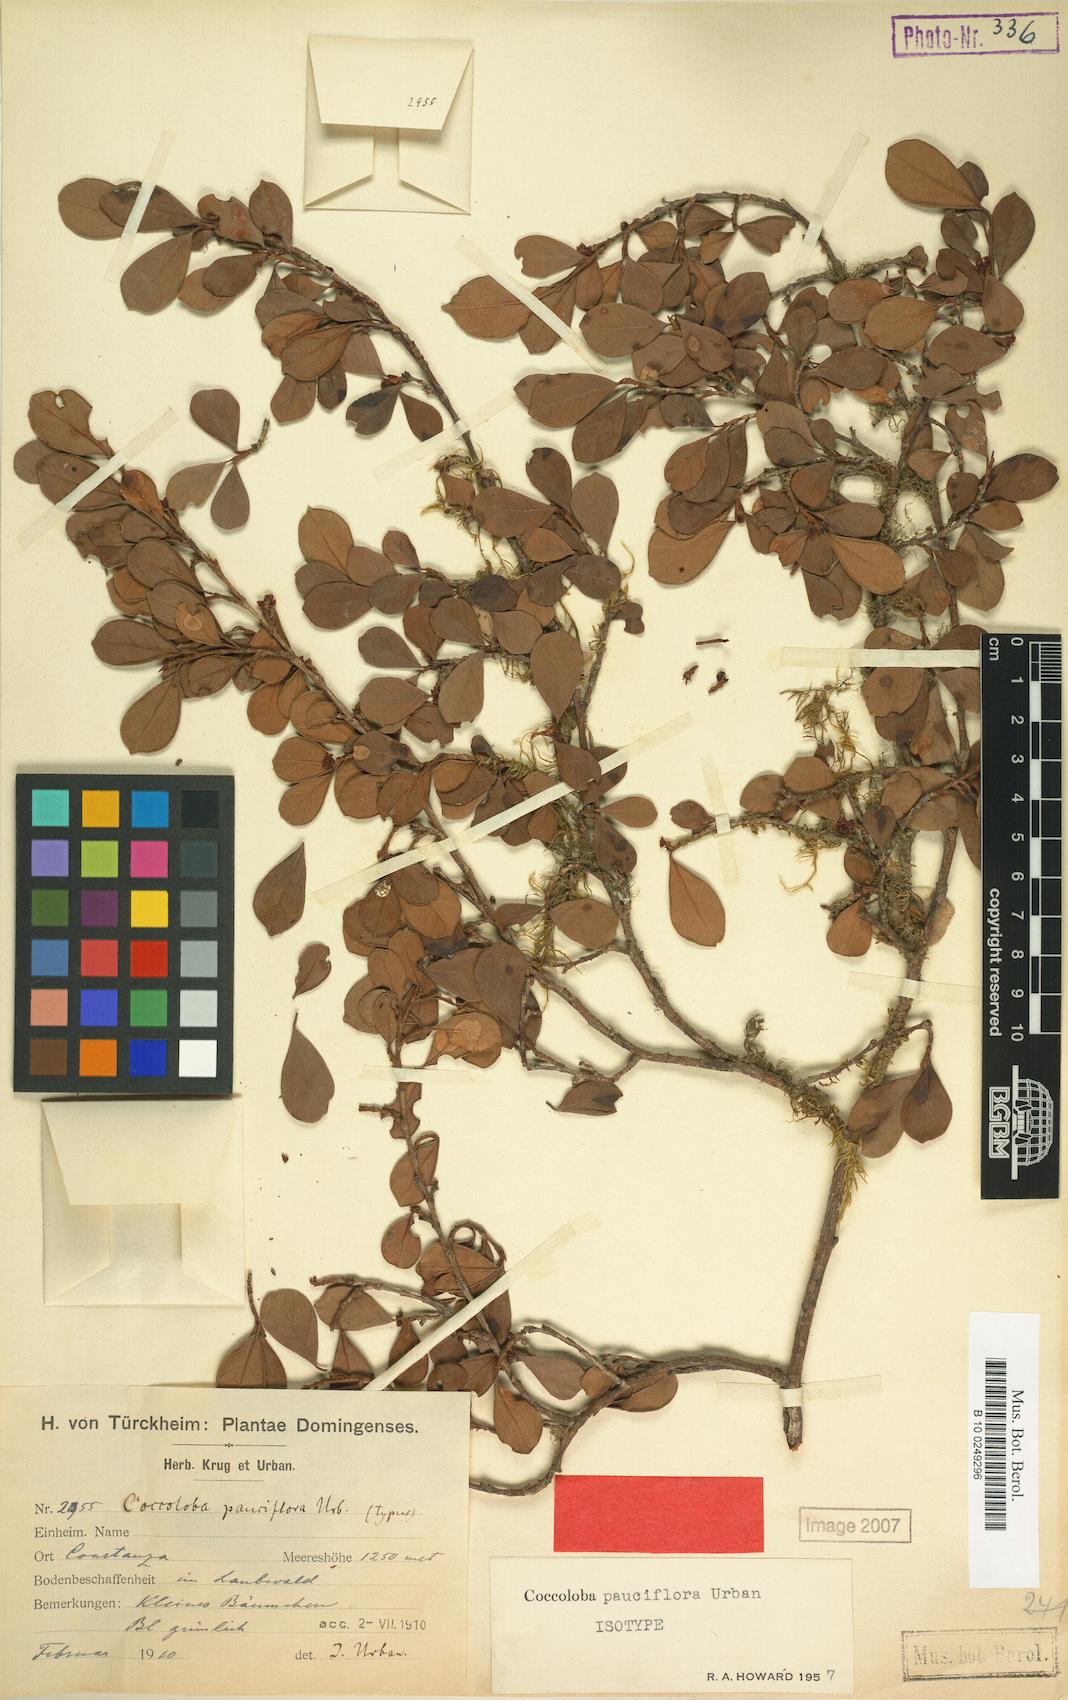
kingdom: Plantae
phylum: Tracheophyta
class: Magnoliopsida
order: Caryophyllales
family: Polygonaceae
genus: Coccoloba
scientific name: Coccoloba pauciflora
